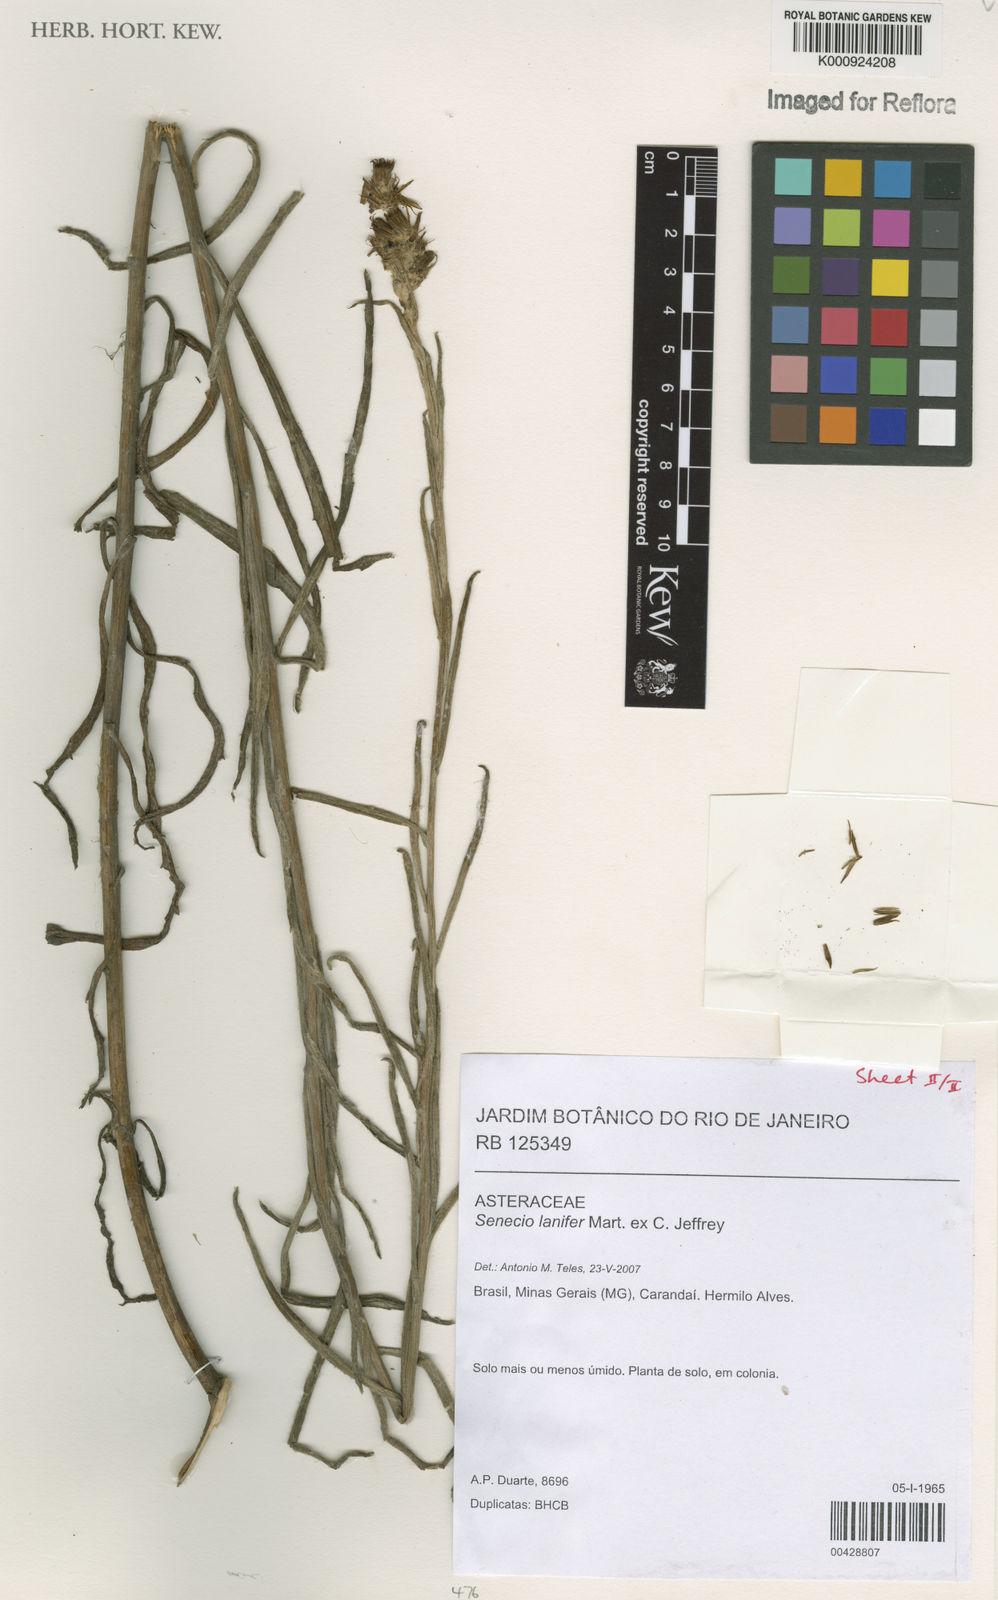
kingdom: Plantae
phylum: Tracheophyta
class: Magnoliopsida
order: Asterales
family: Asteraceae
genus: Senecio
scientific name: Senecio lanifer
